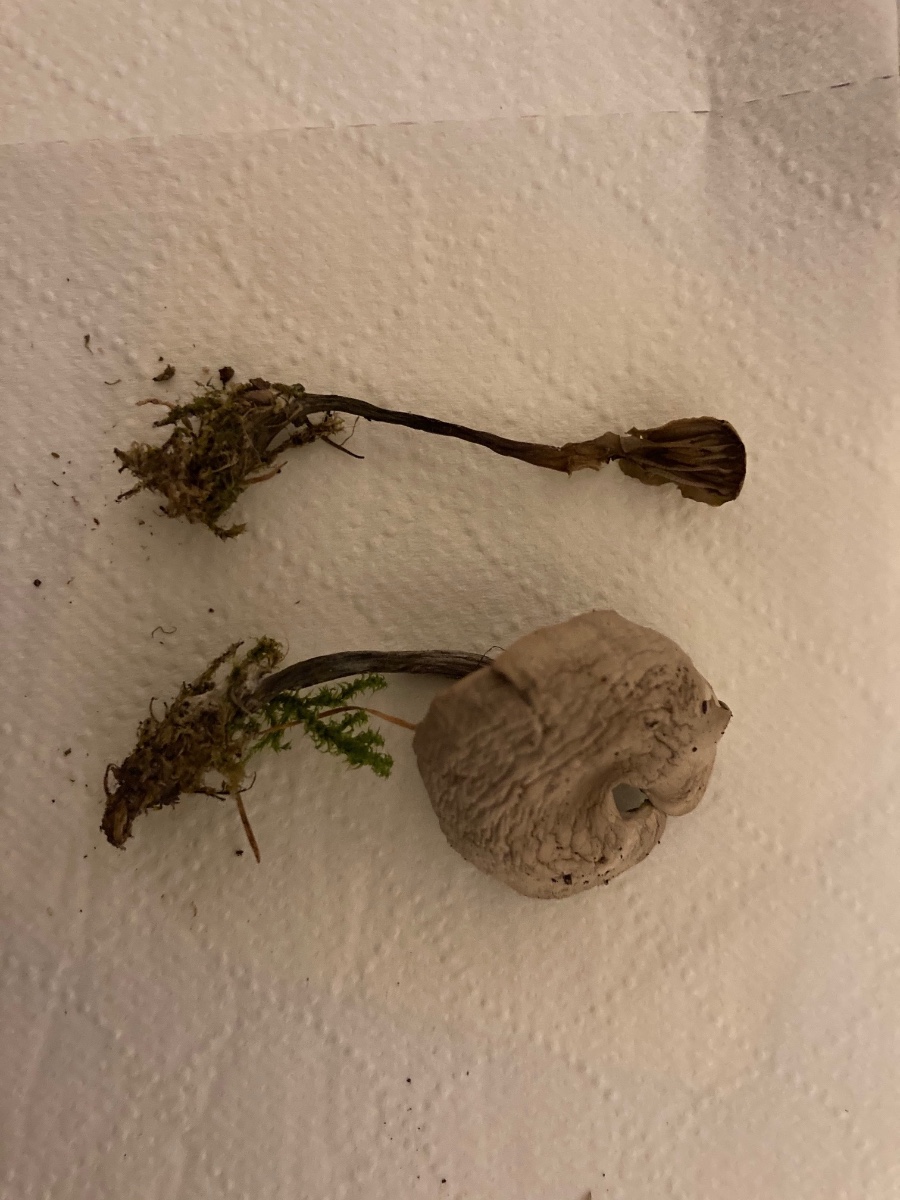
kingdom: Fungi
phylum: Basidiomycota
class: Agaricomycetes
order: Agaricales
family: Tricholomataceae
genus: Clitocybe
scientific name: Clitocybe
